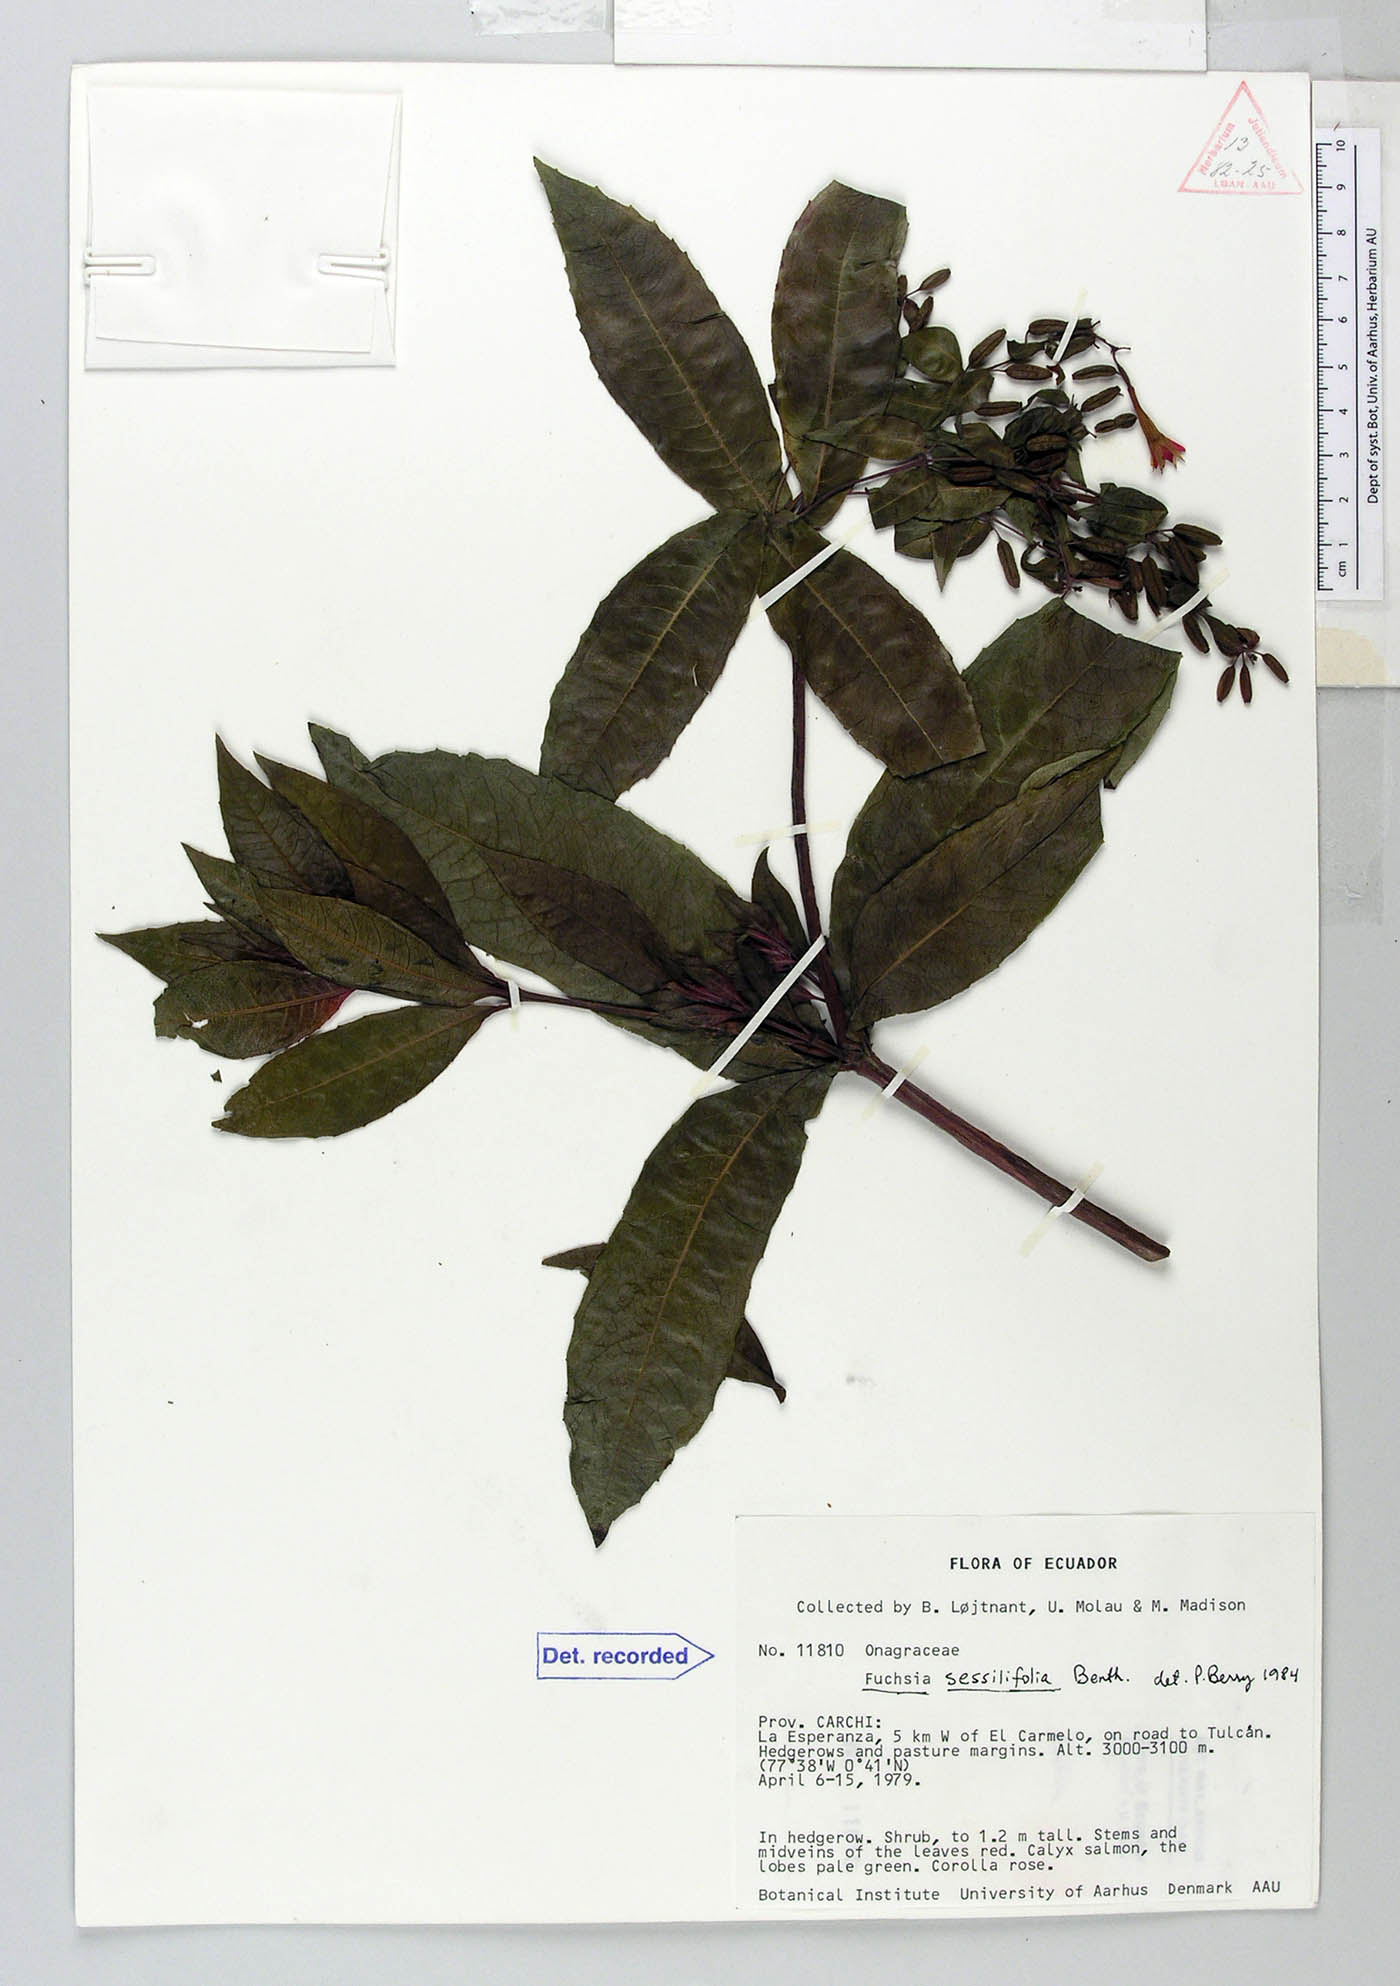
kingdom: Plantae
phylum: Tracheophyta
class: Magnoliopsida
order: Myrtales
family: Onagraceae
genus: Fuchsia
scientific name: Fuchsia sessilifolia
